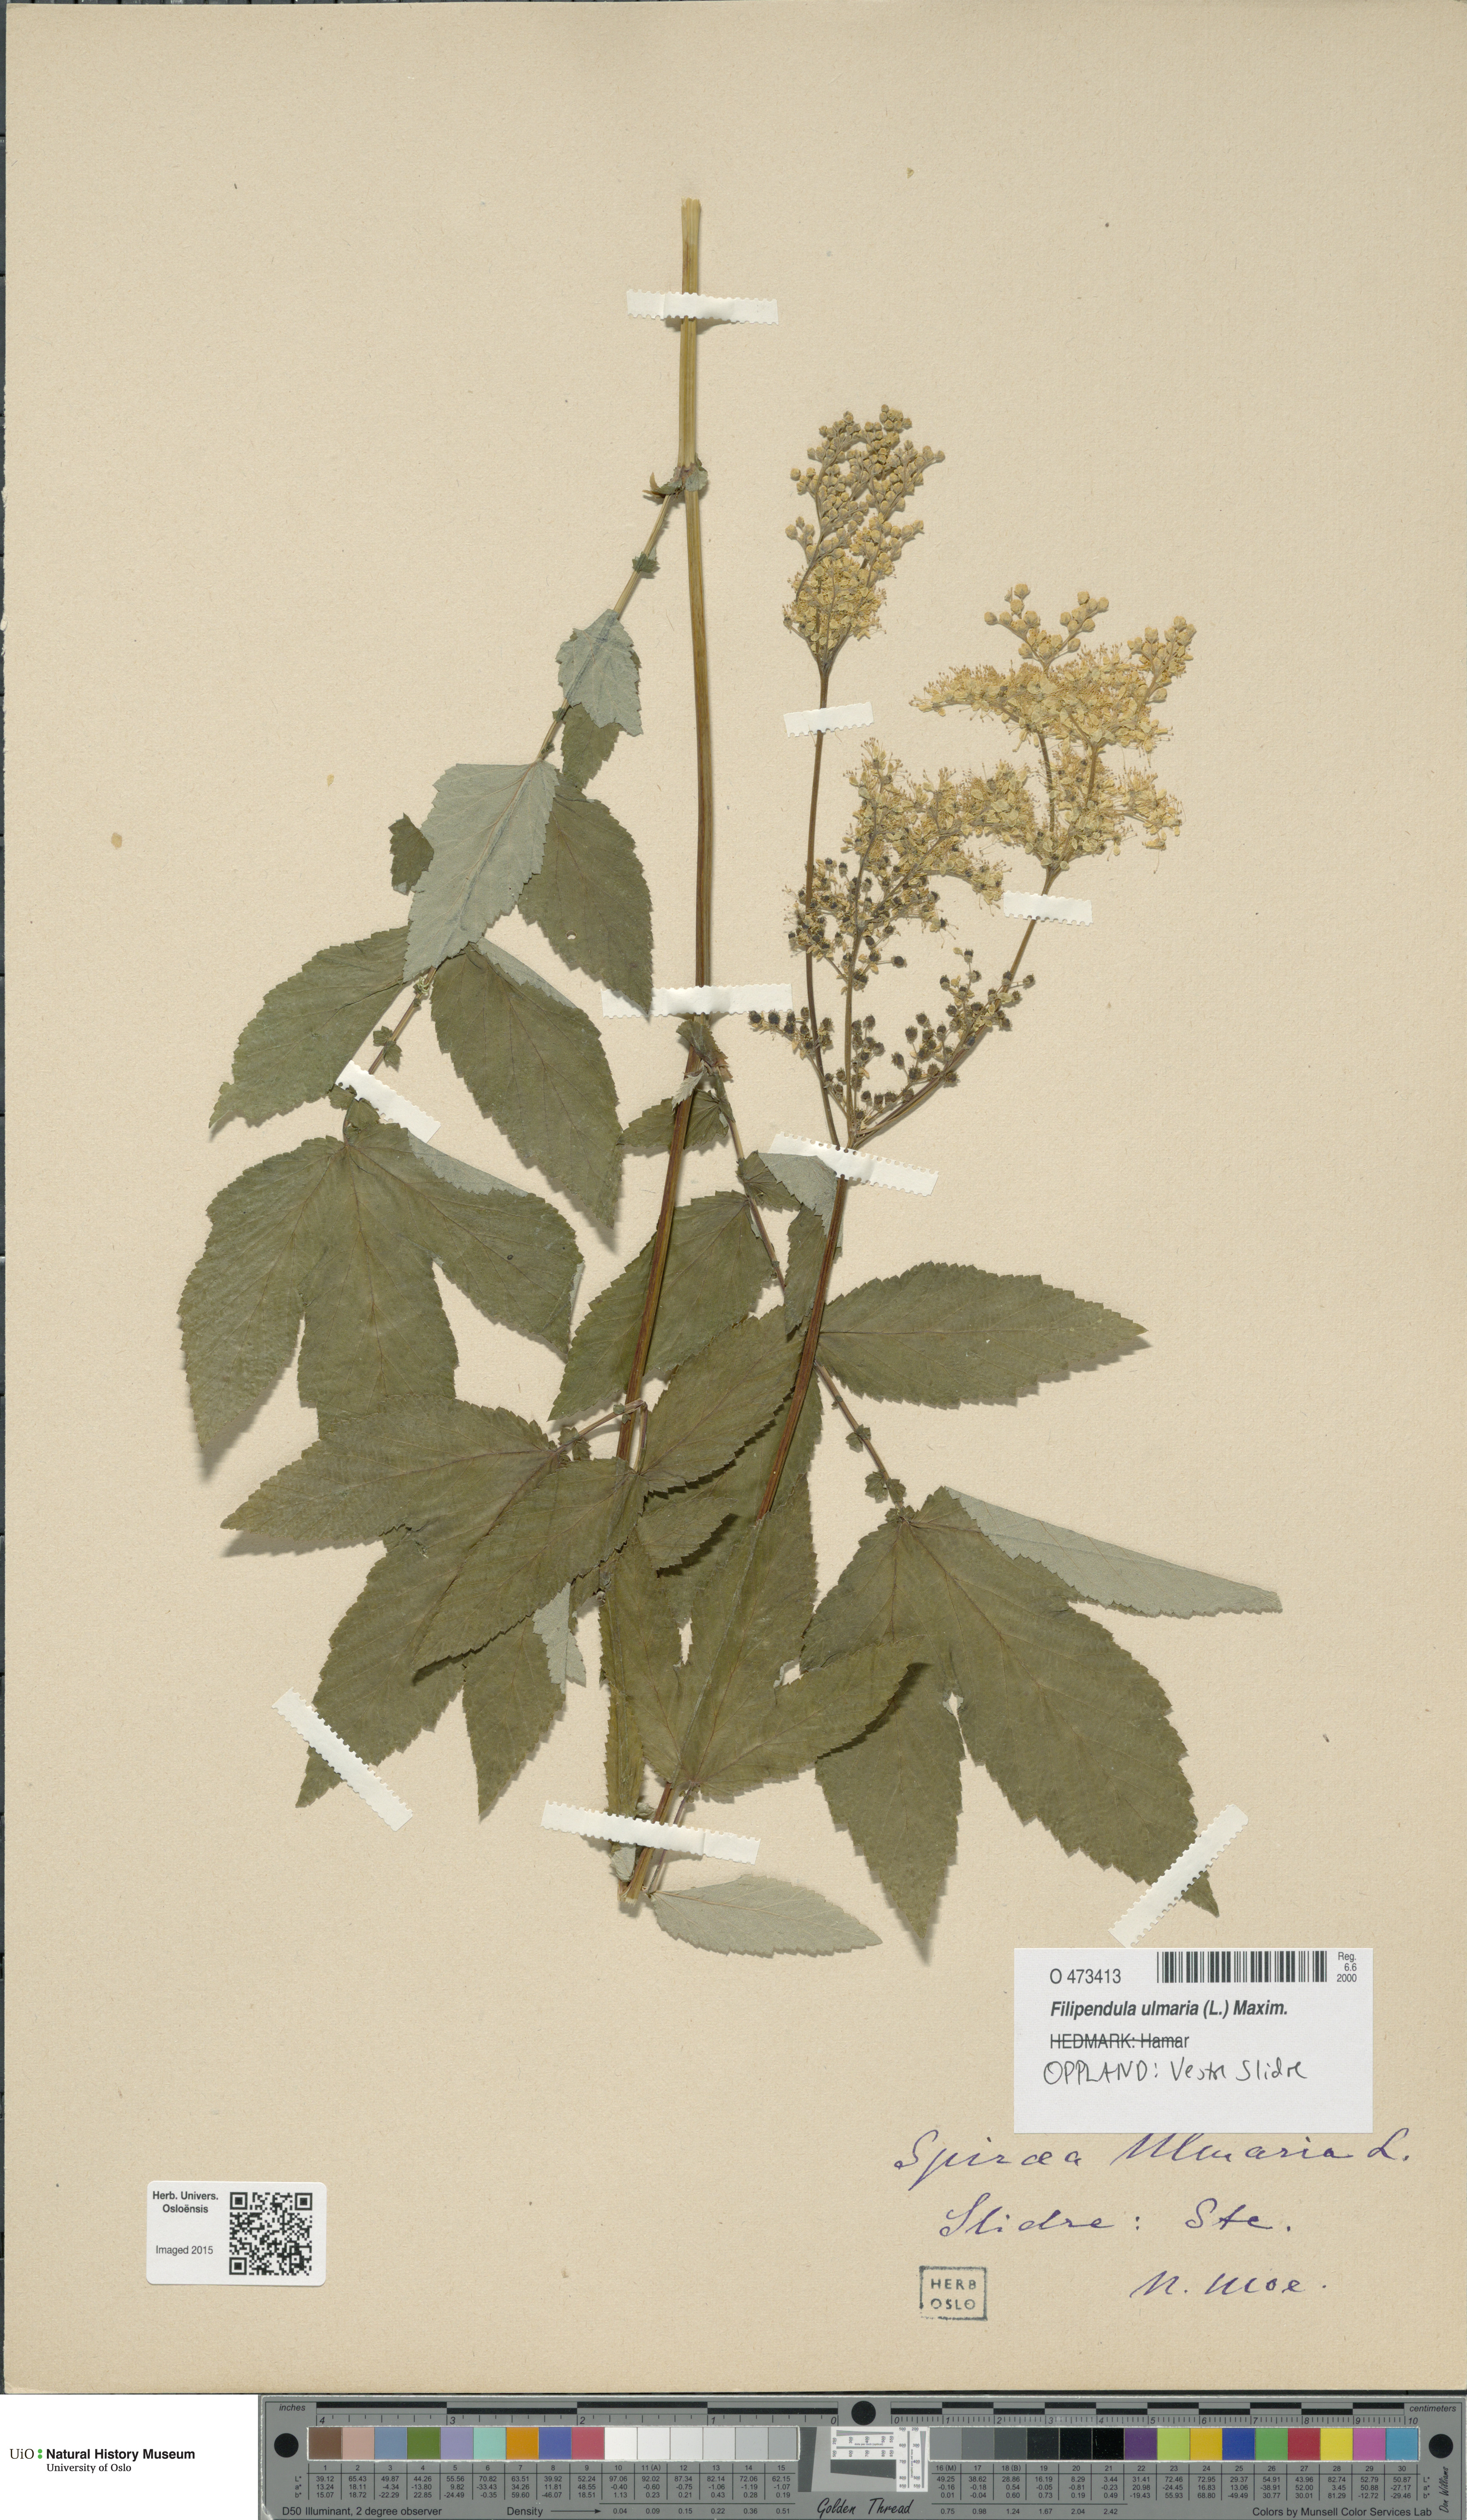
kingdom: Plantae
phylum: Tracheophyta
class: Magnoliopsida
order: Rosales
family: Rosaceae
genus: Filipendula
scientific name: Filipendula ulmaria
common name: Meadowsweet
